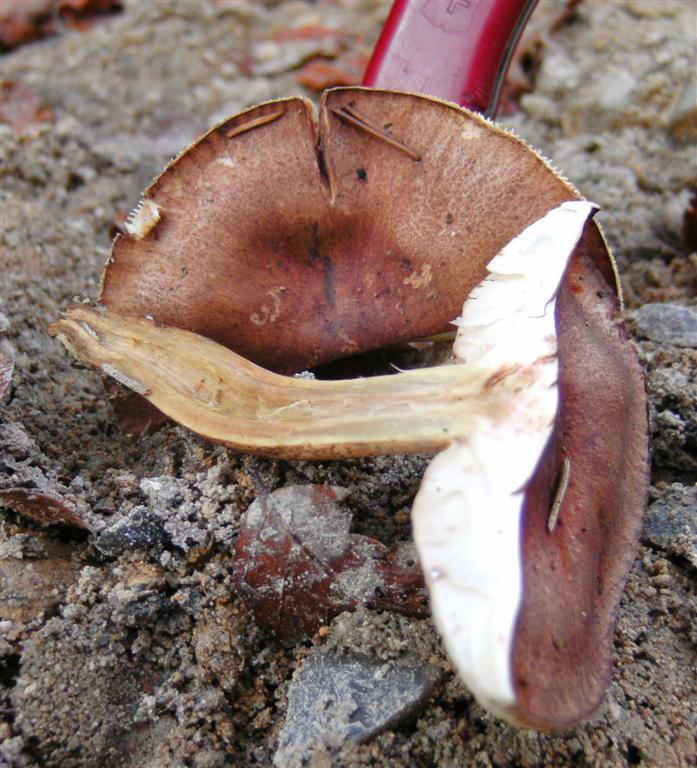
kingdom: Fungi
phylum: Basidiomycota
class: Agaricomycetes
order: Agaricales
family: Tricholomataceae
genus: Tricholoma
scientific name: Tricholoma fulvum
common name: birke-ridderhat
